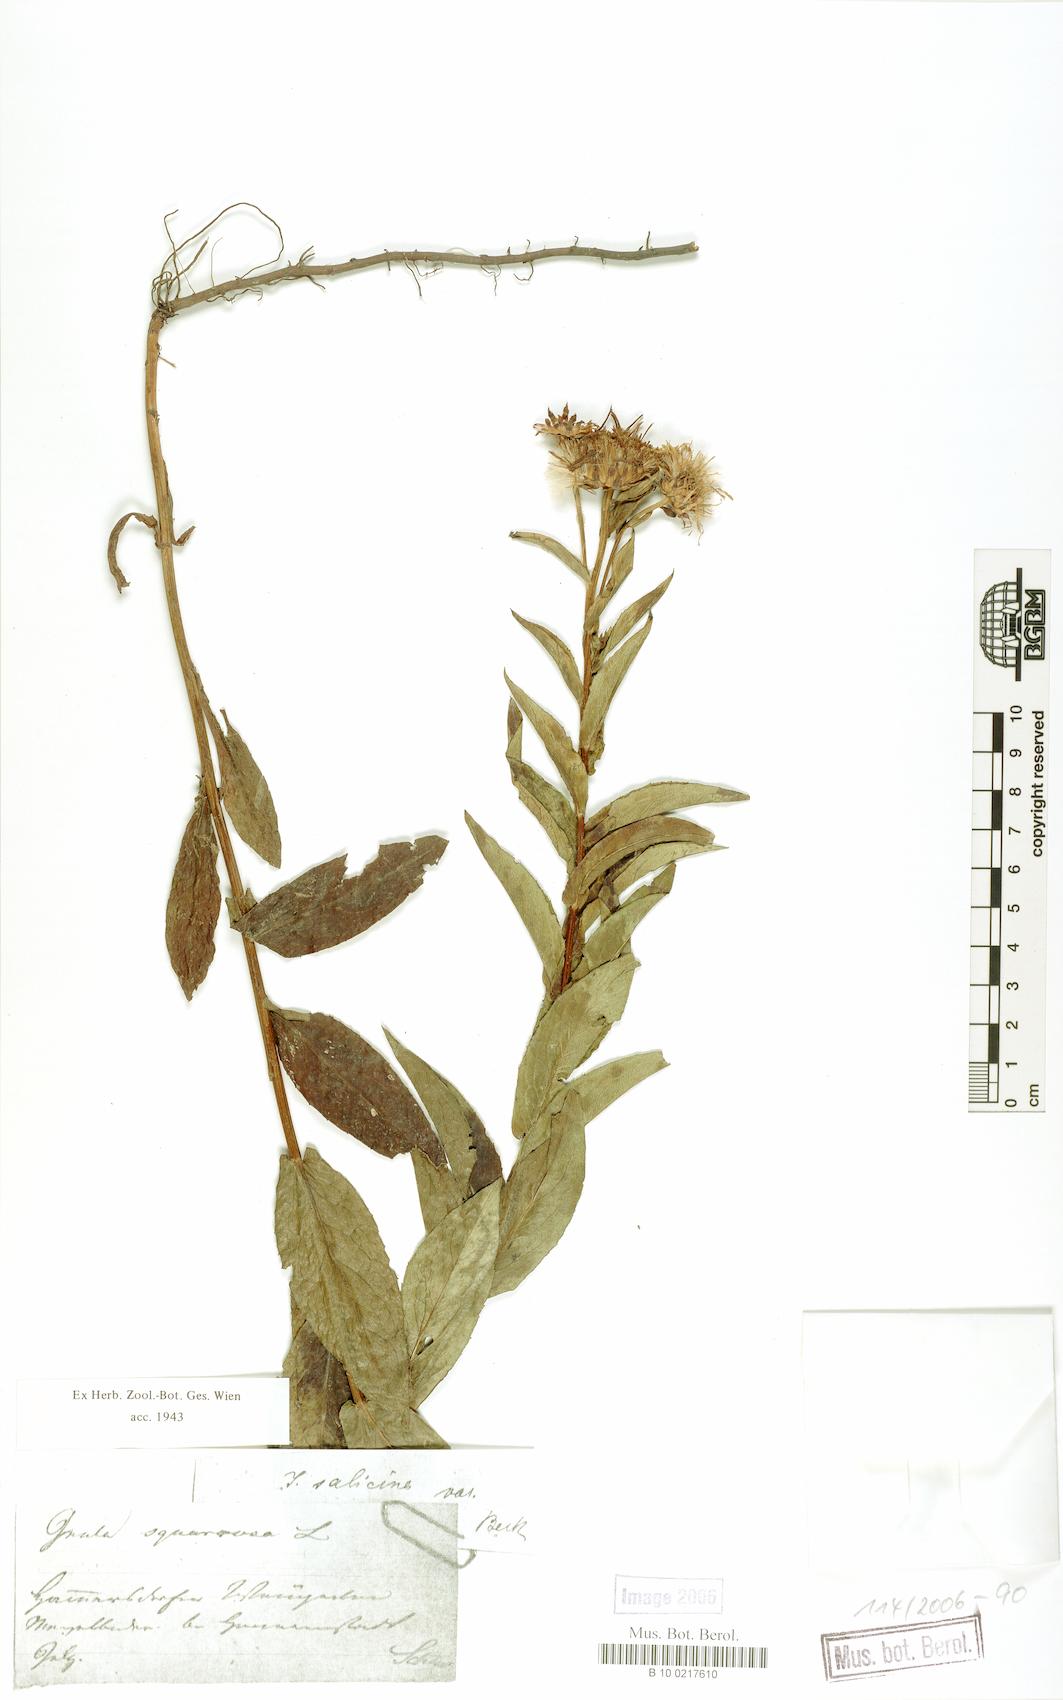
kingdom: Plantae
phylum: Tracheophyta
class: Magnoliopsida
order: Asterales
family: Asteraceae
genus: Pentanema
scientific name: Pentanema salicinum
